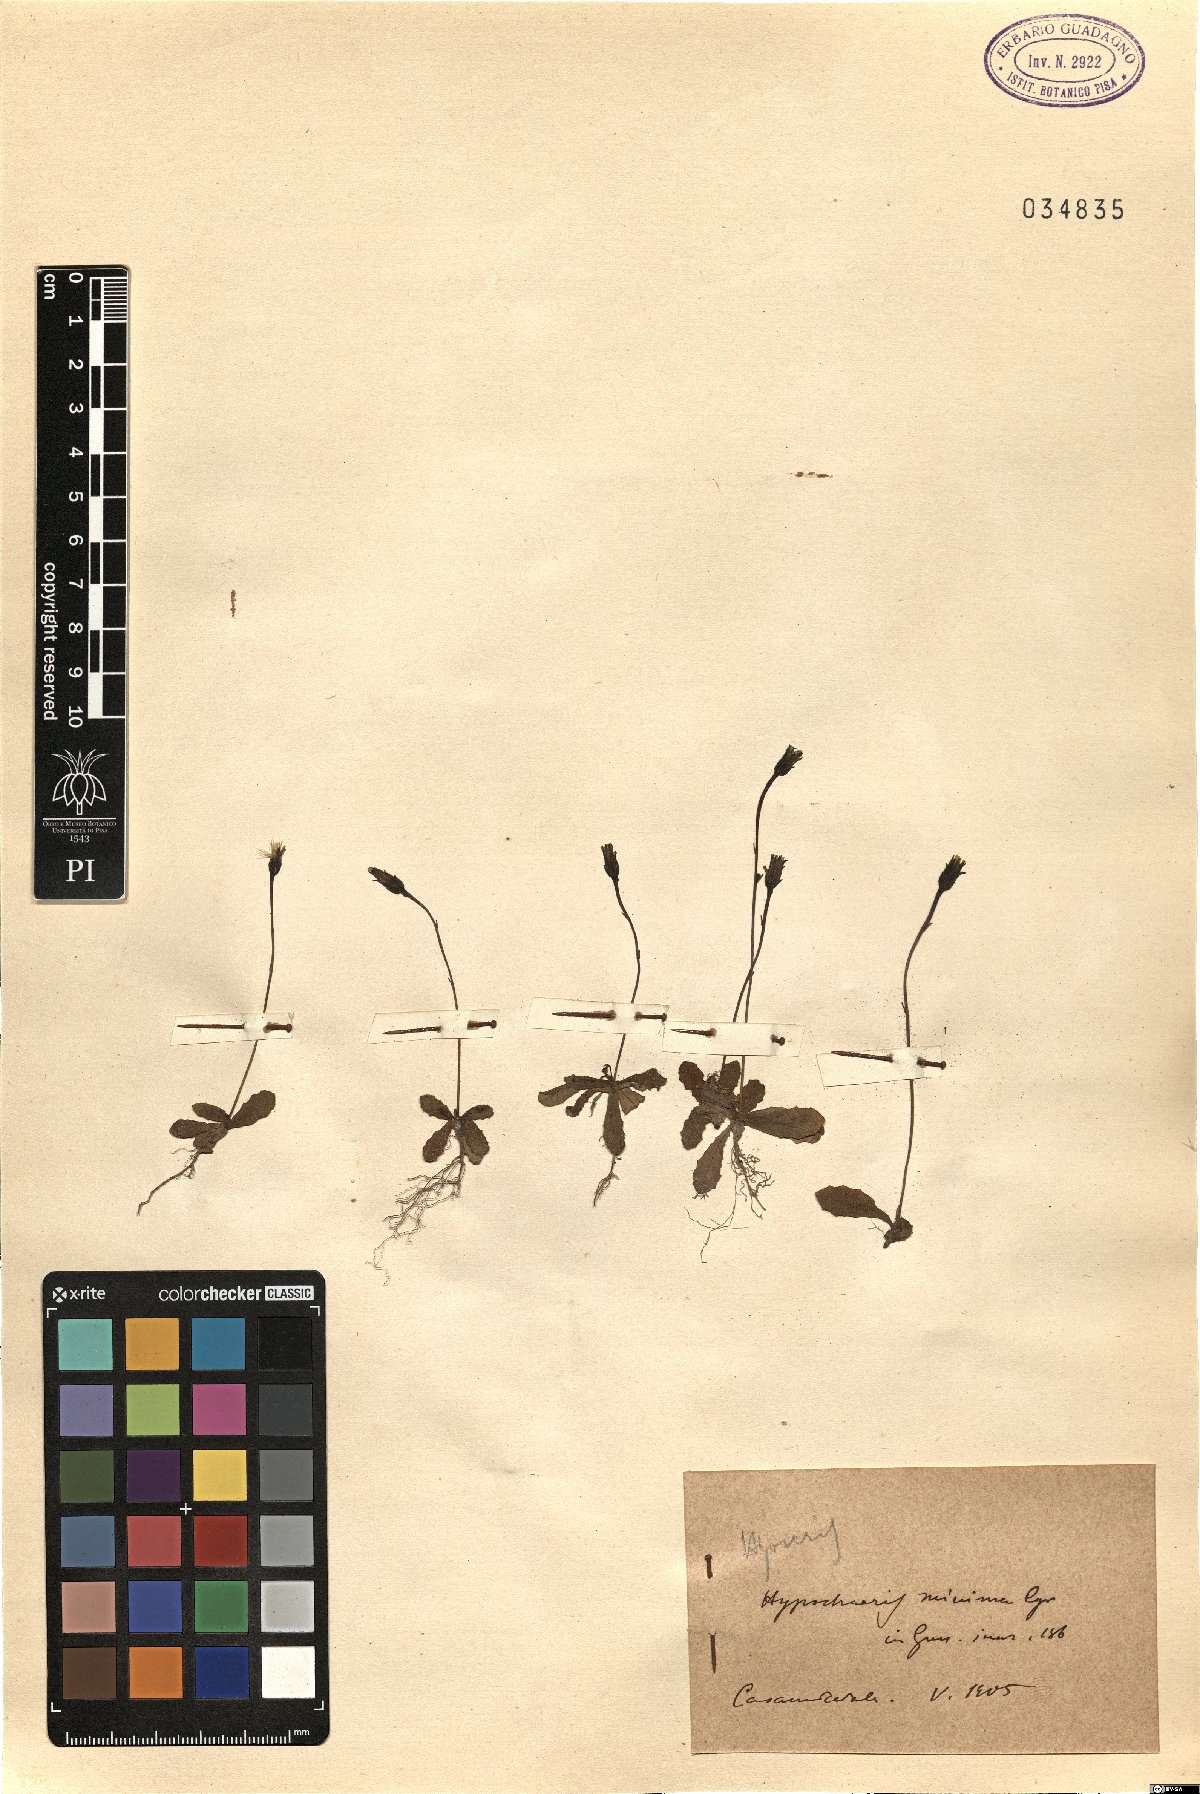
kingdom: Plantae
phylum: Tracheophyta
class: Magnoliopsida
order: Asterales
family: Asteraceae
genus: Hypochaeris
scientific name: Hypochaeris arachnoides
